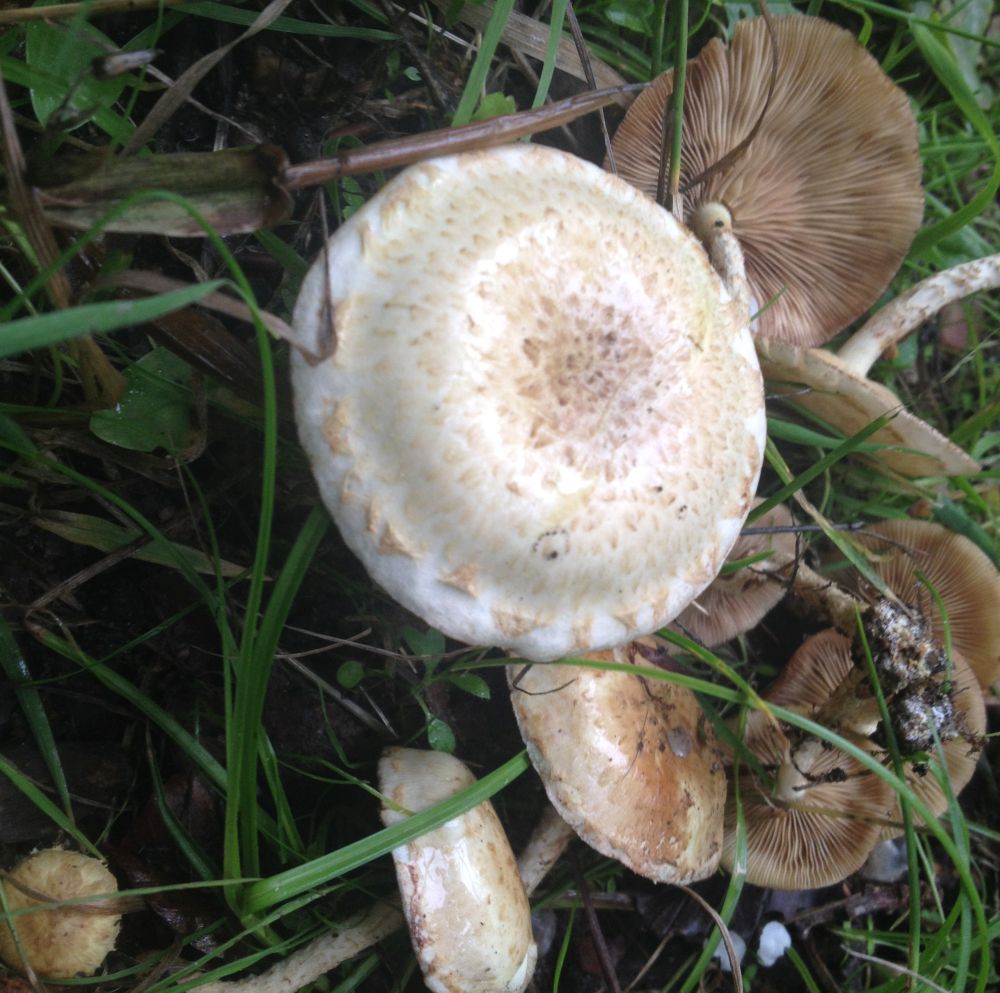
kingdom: Fungi
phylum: Basidiomycota
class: Agaricomycetes
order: Agaricales
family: Strophariaceae
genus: Pholiota
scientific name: Pholiota gummosa
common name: grøngul skælhat
